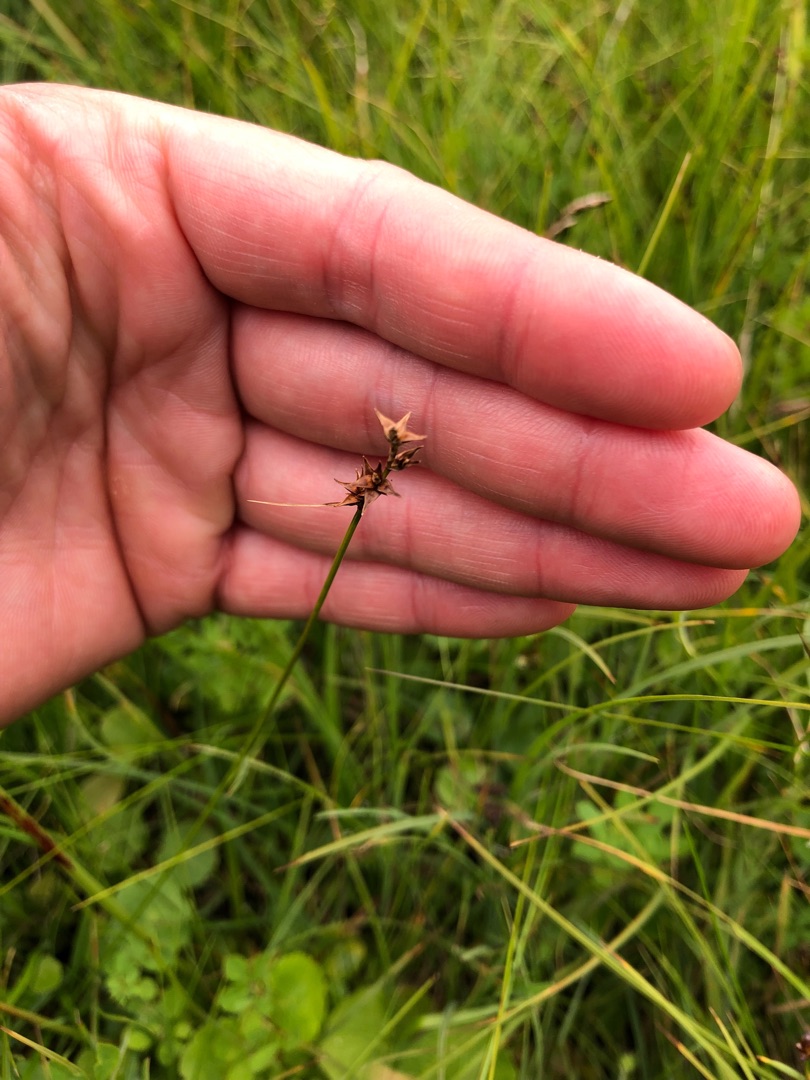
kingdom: Plantae
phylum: Tracheophyta
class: Liliopsida
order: Poales
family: Cyperaceae
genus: Carex
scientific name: Carex echinata
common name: Stjerne-star
